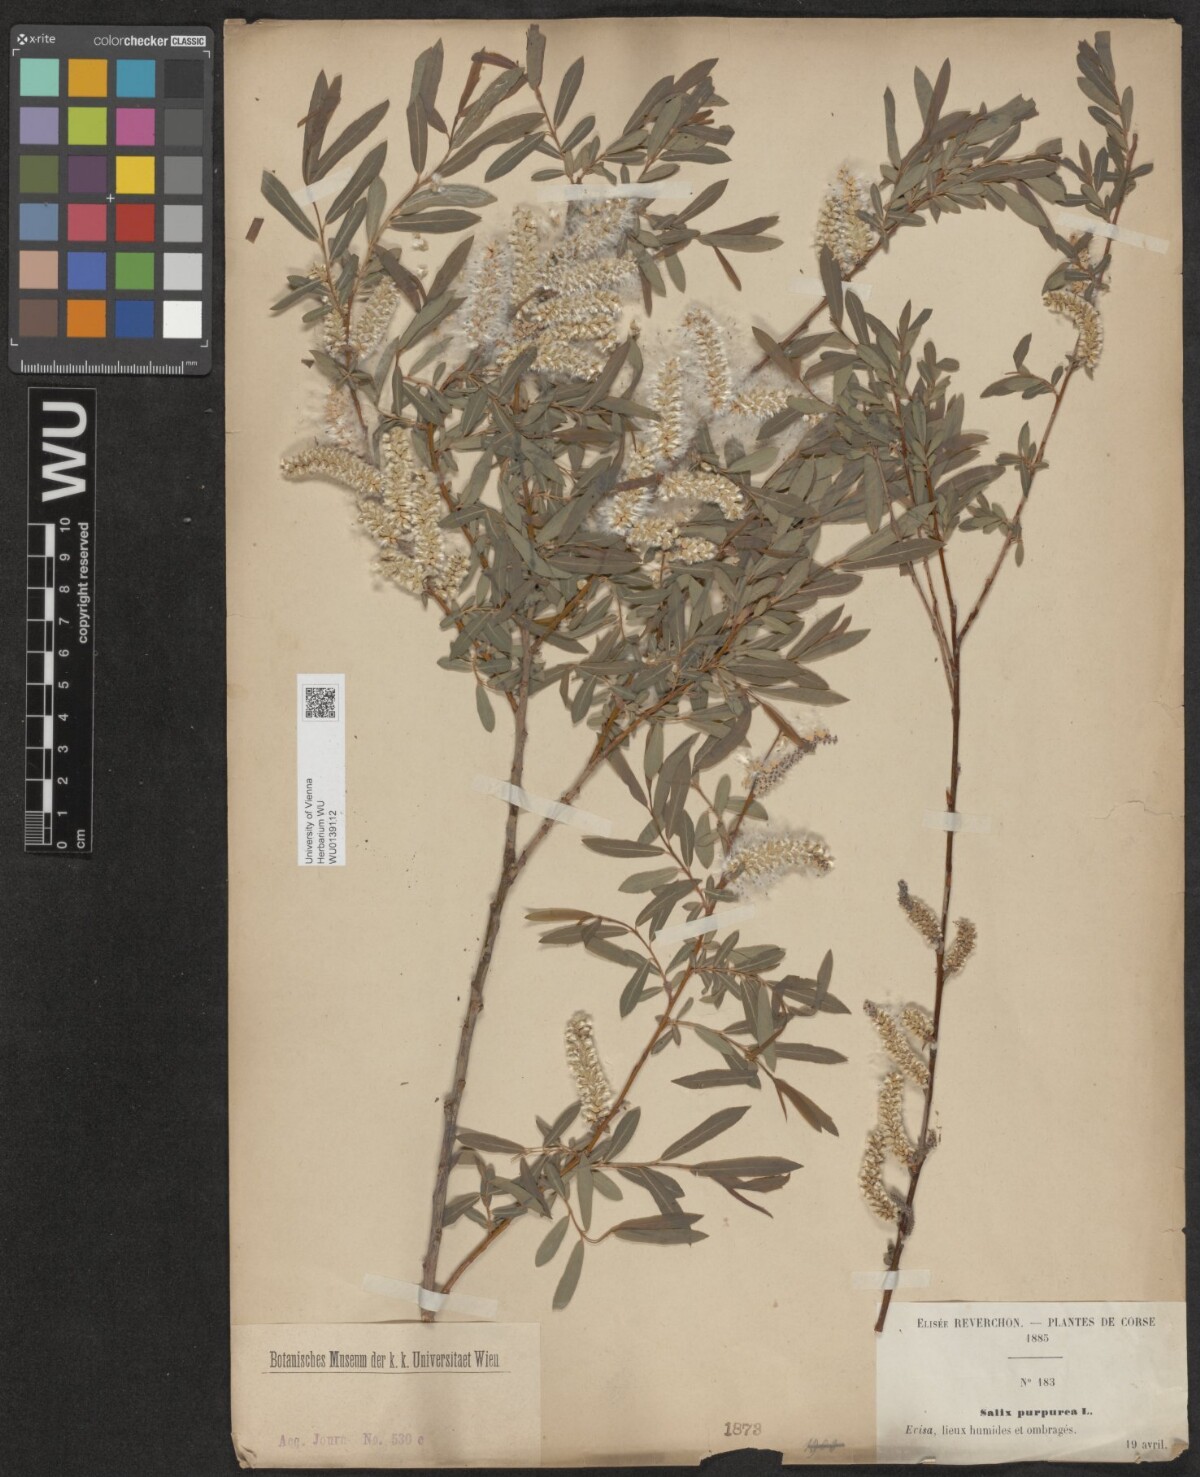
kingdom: Plantae
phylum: Tracheophyta
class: Magnoliopsida
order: Malpighiales
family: Salicaceae
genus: Salix
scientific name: Salix purpurea
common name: Purple willow
